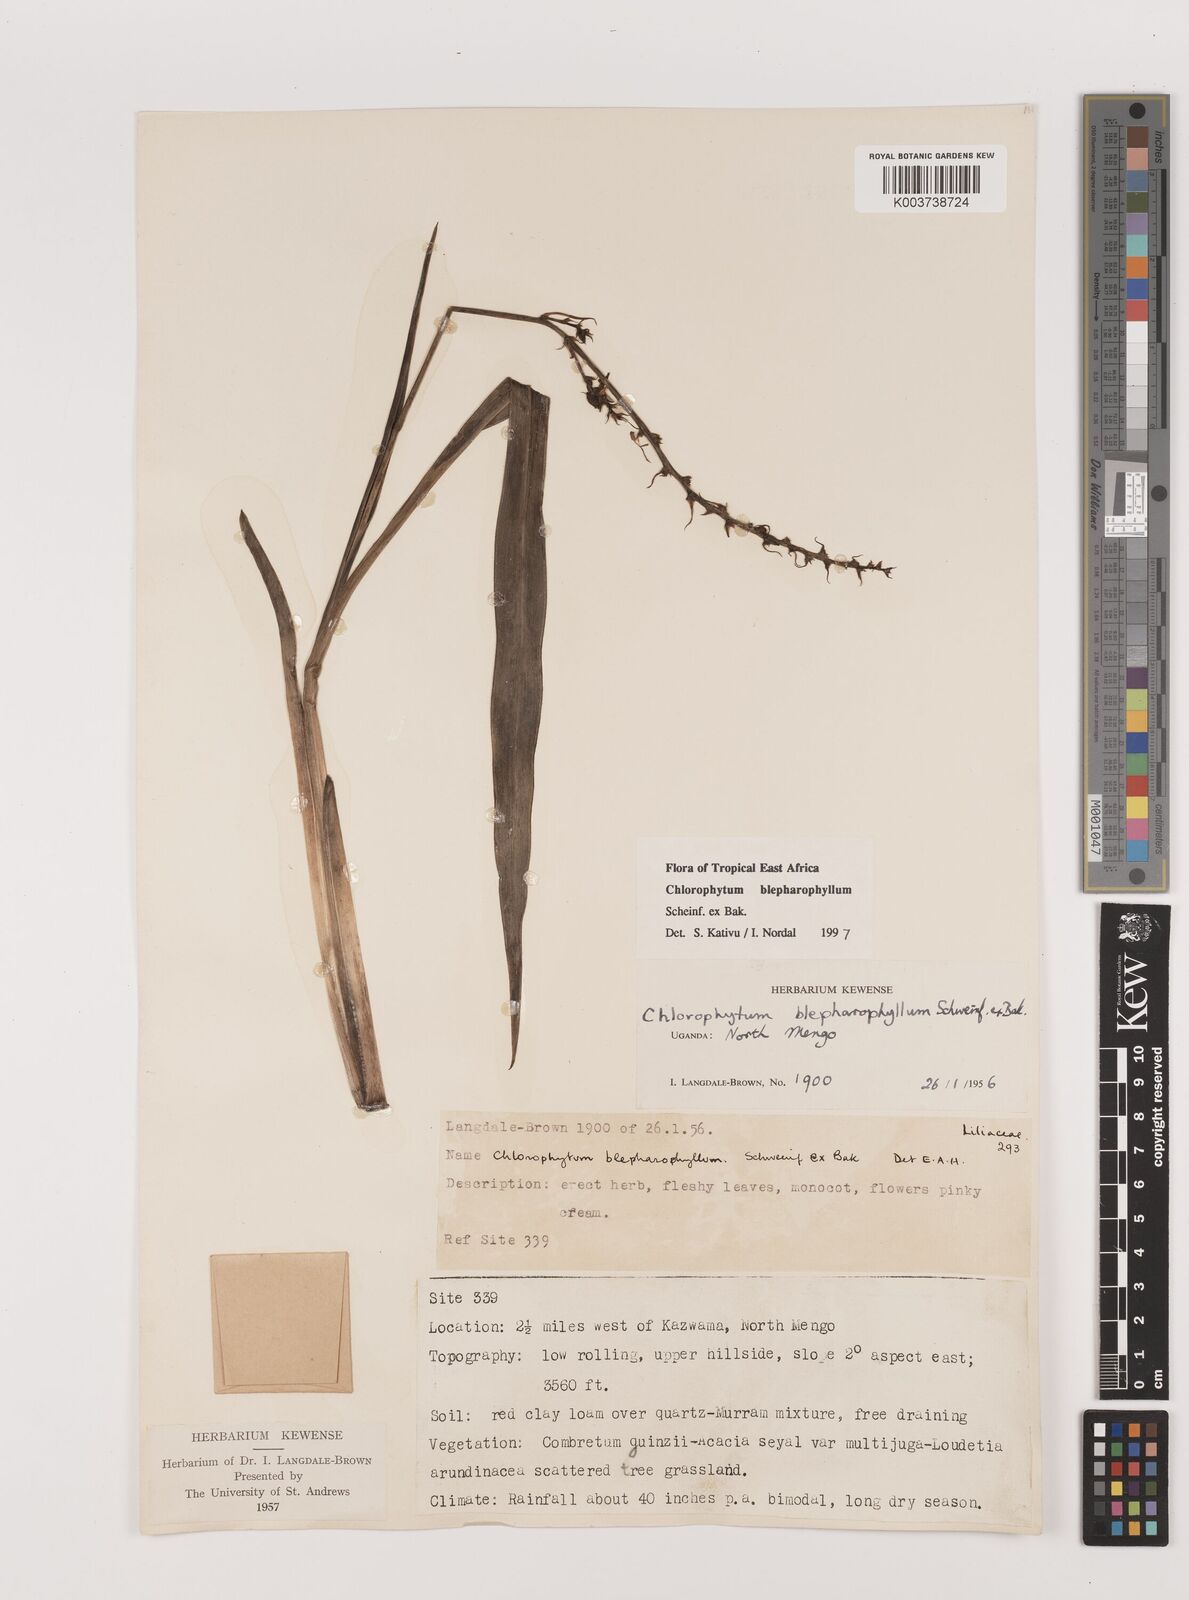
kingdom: Plantae
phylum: Tracheophyta
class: Liliopsida
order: Asparagales
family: Asparagaceae
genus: Chlorophytum
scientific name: Chlorophytum blepharophyllum
